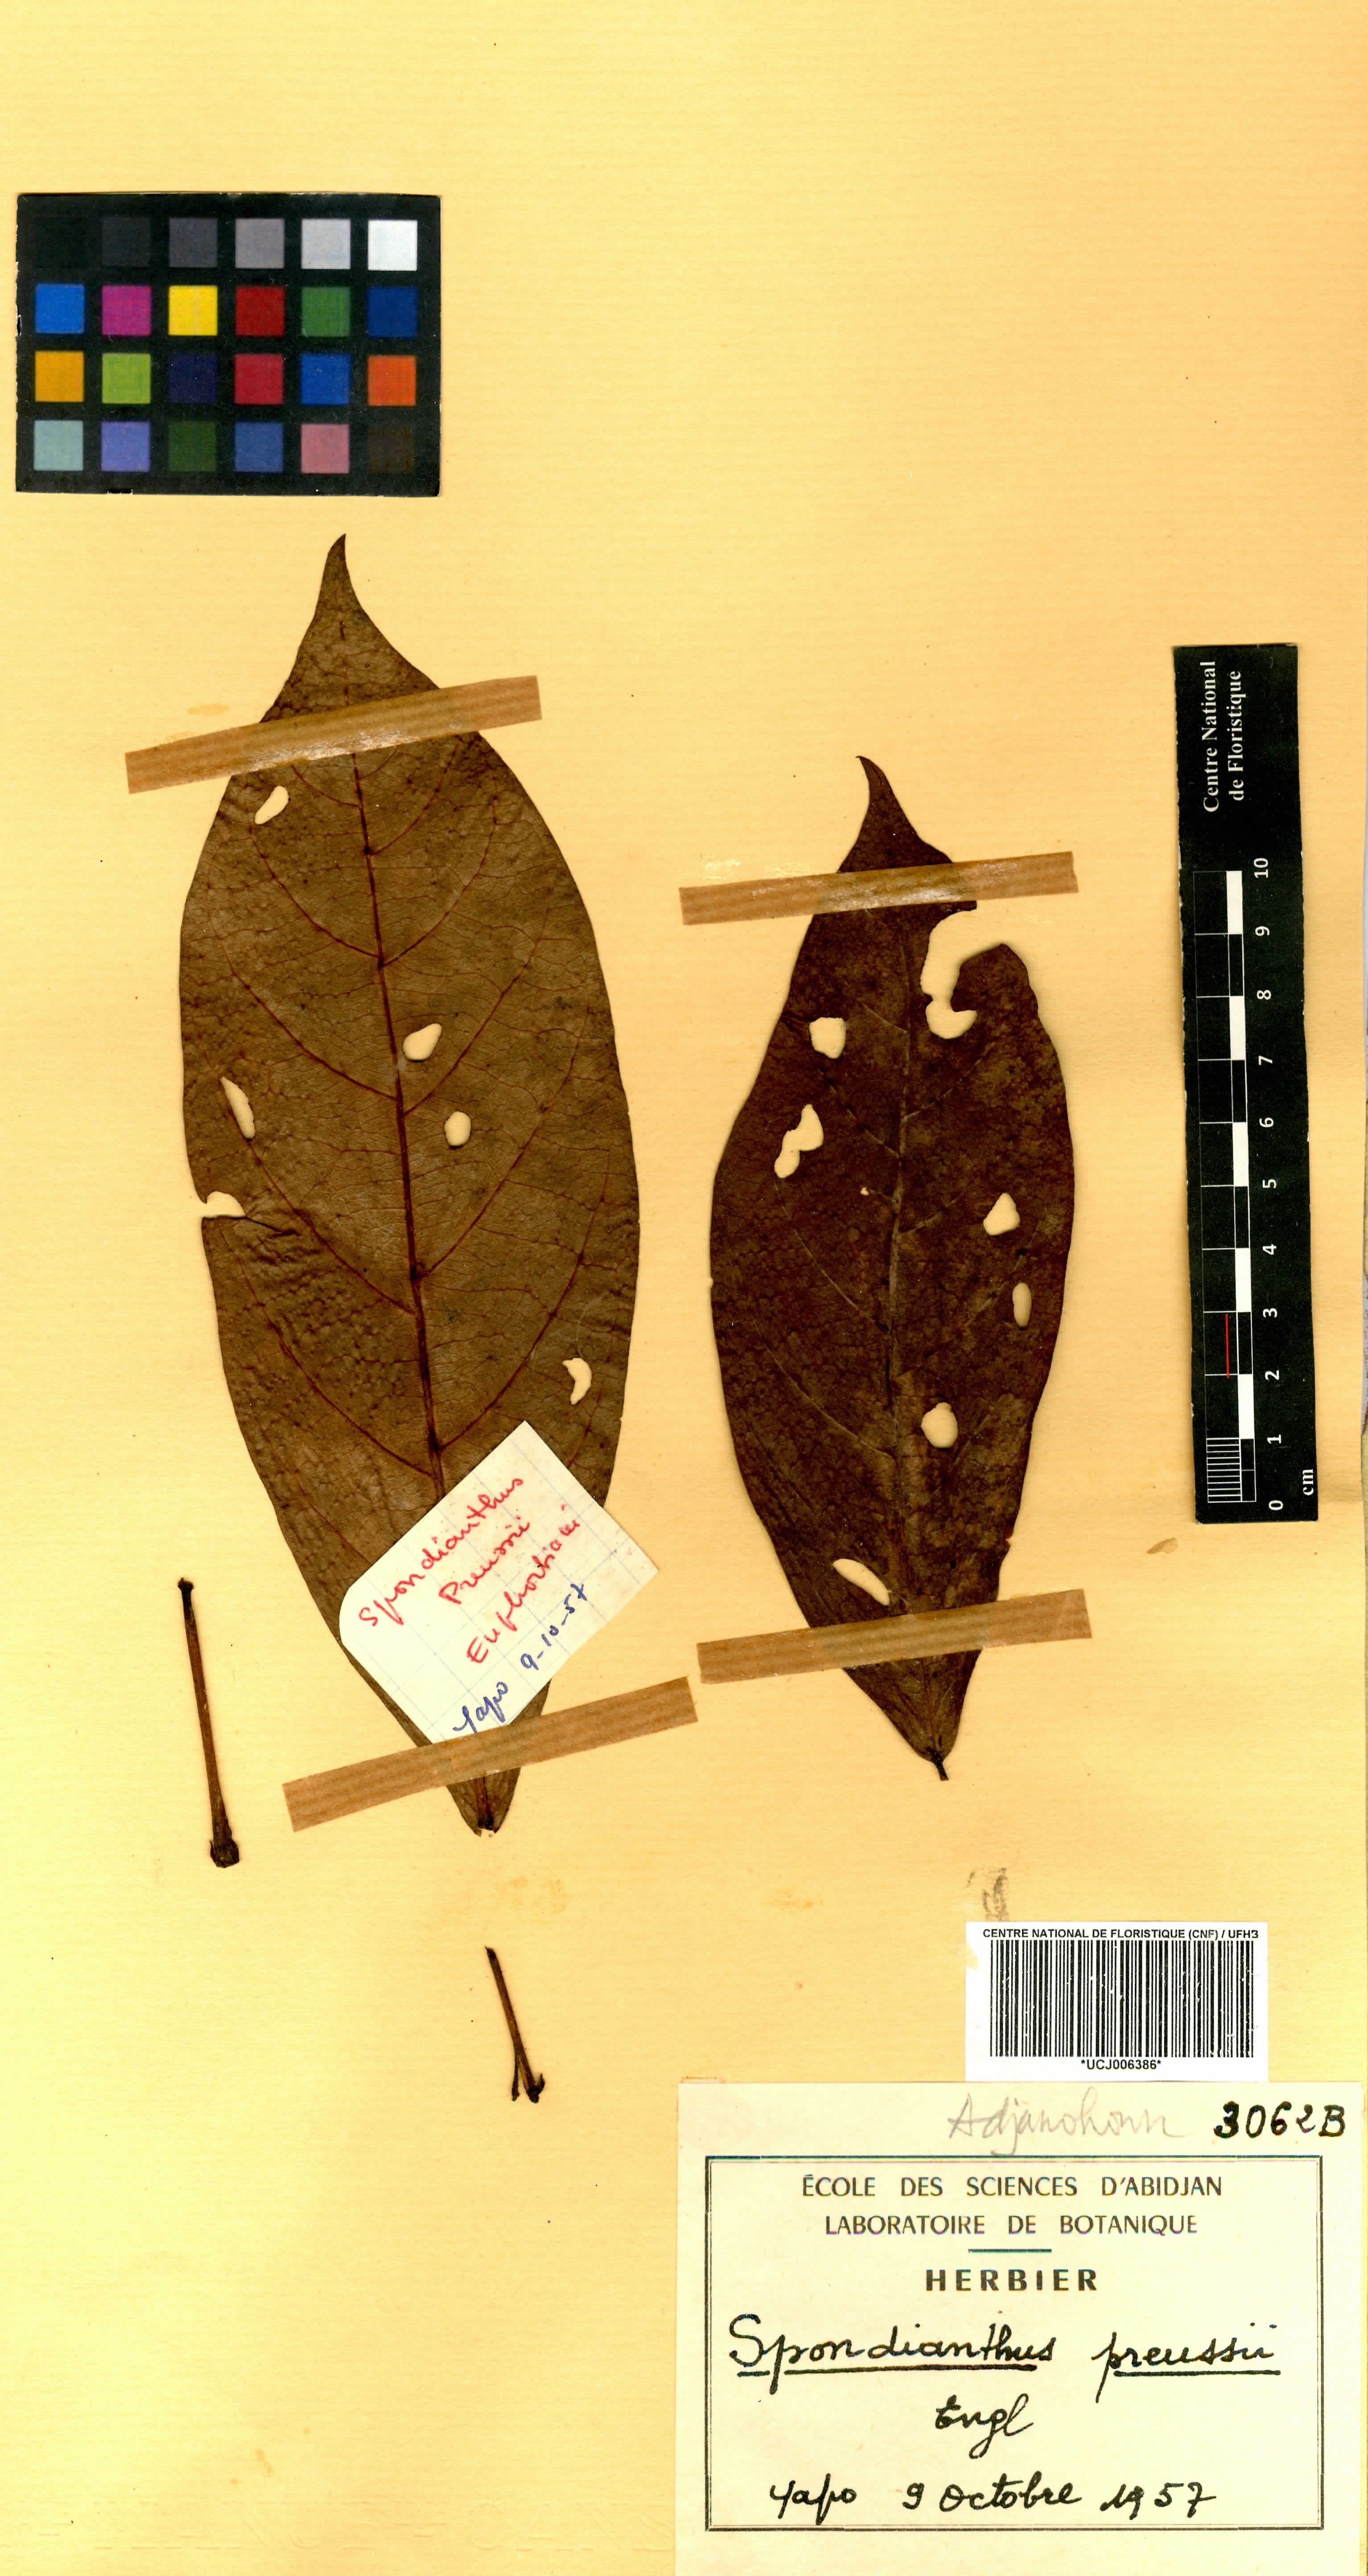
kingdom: Plantae
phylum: Tracheophyta
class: Magnoliopsida
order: Malpighiales
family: Phyllanthaceae
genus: Spondianthus
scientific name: Spondianthus preussii
